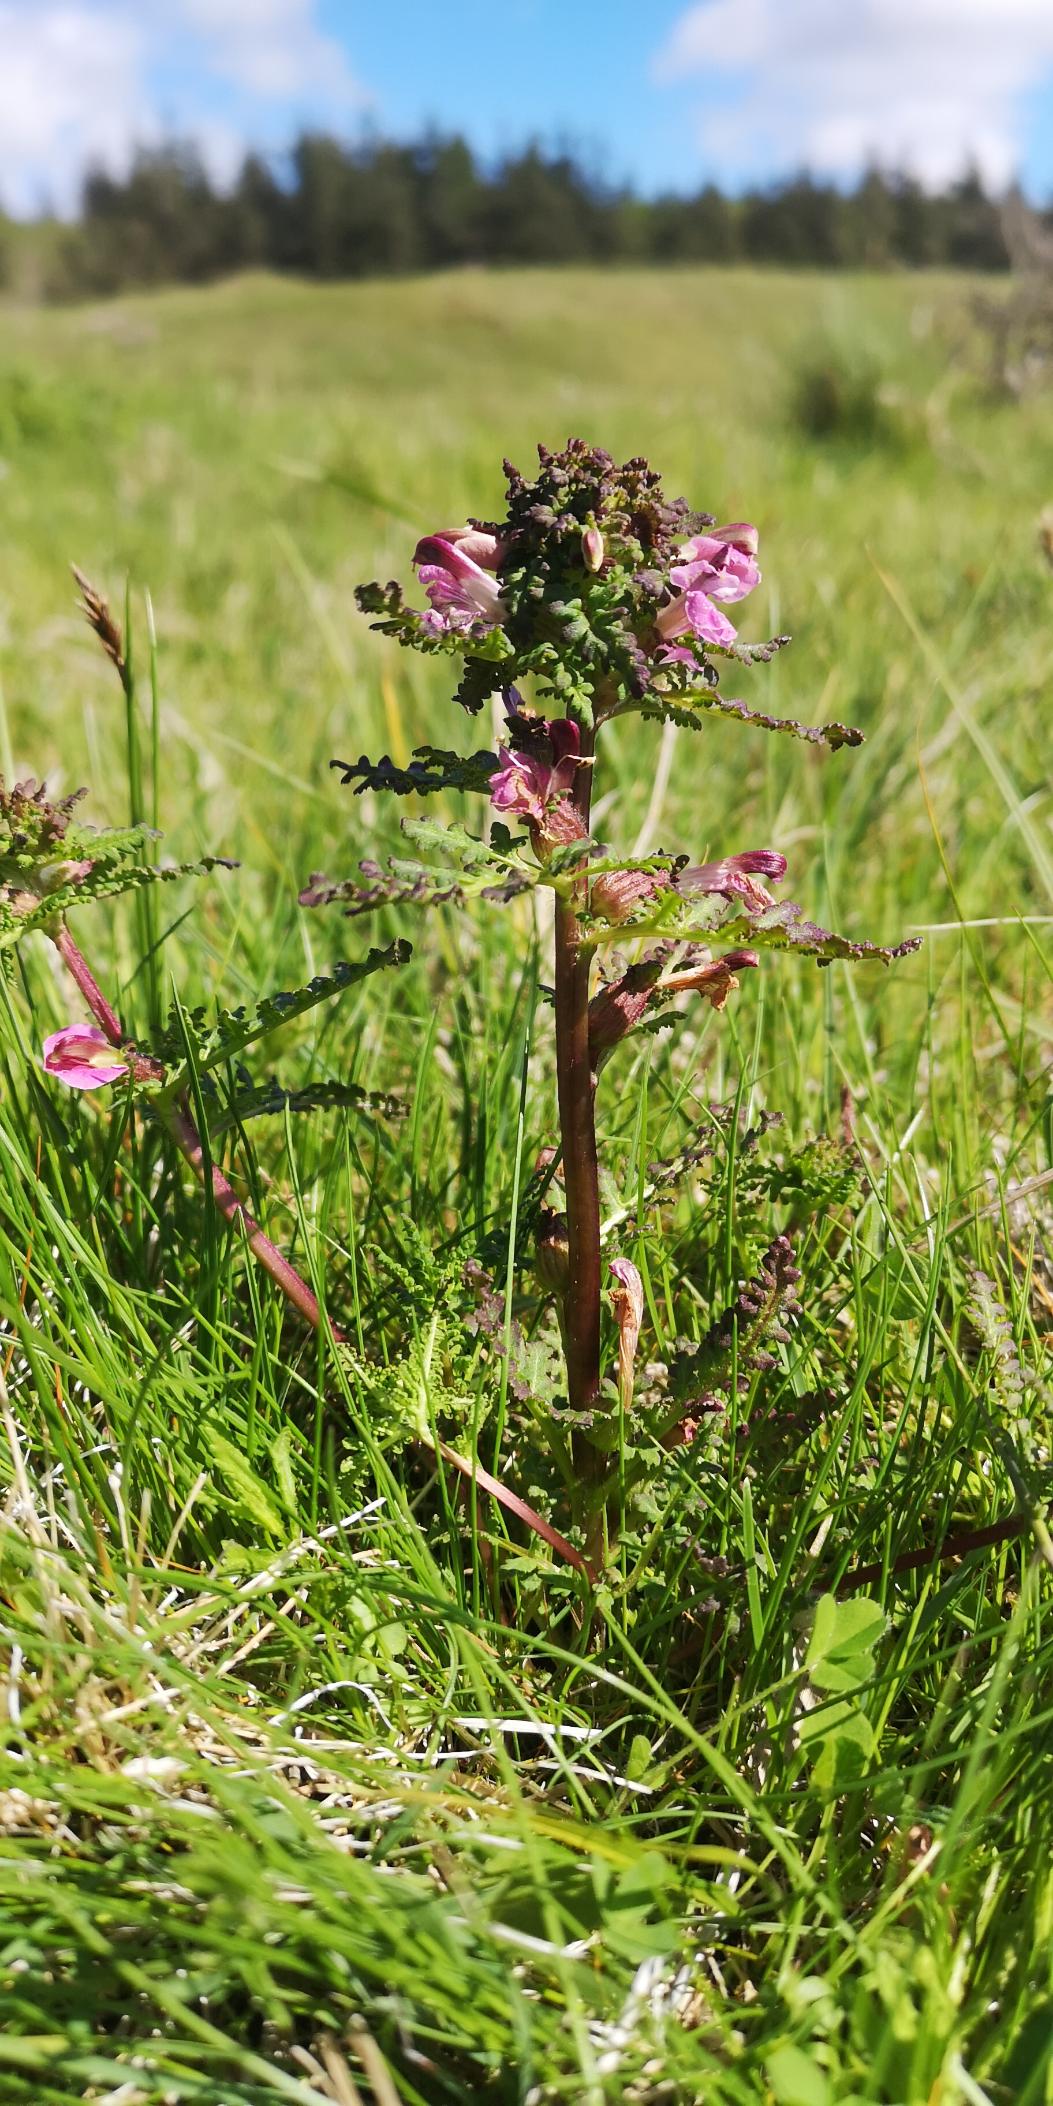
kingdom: Plantae
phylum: Tracheophyta
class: Magnoliopsida
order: Lamiales
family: Orobanchaceae
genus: Pedicularis
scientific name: Pedicularis palustris
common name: Eng-troldurt
